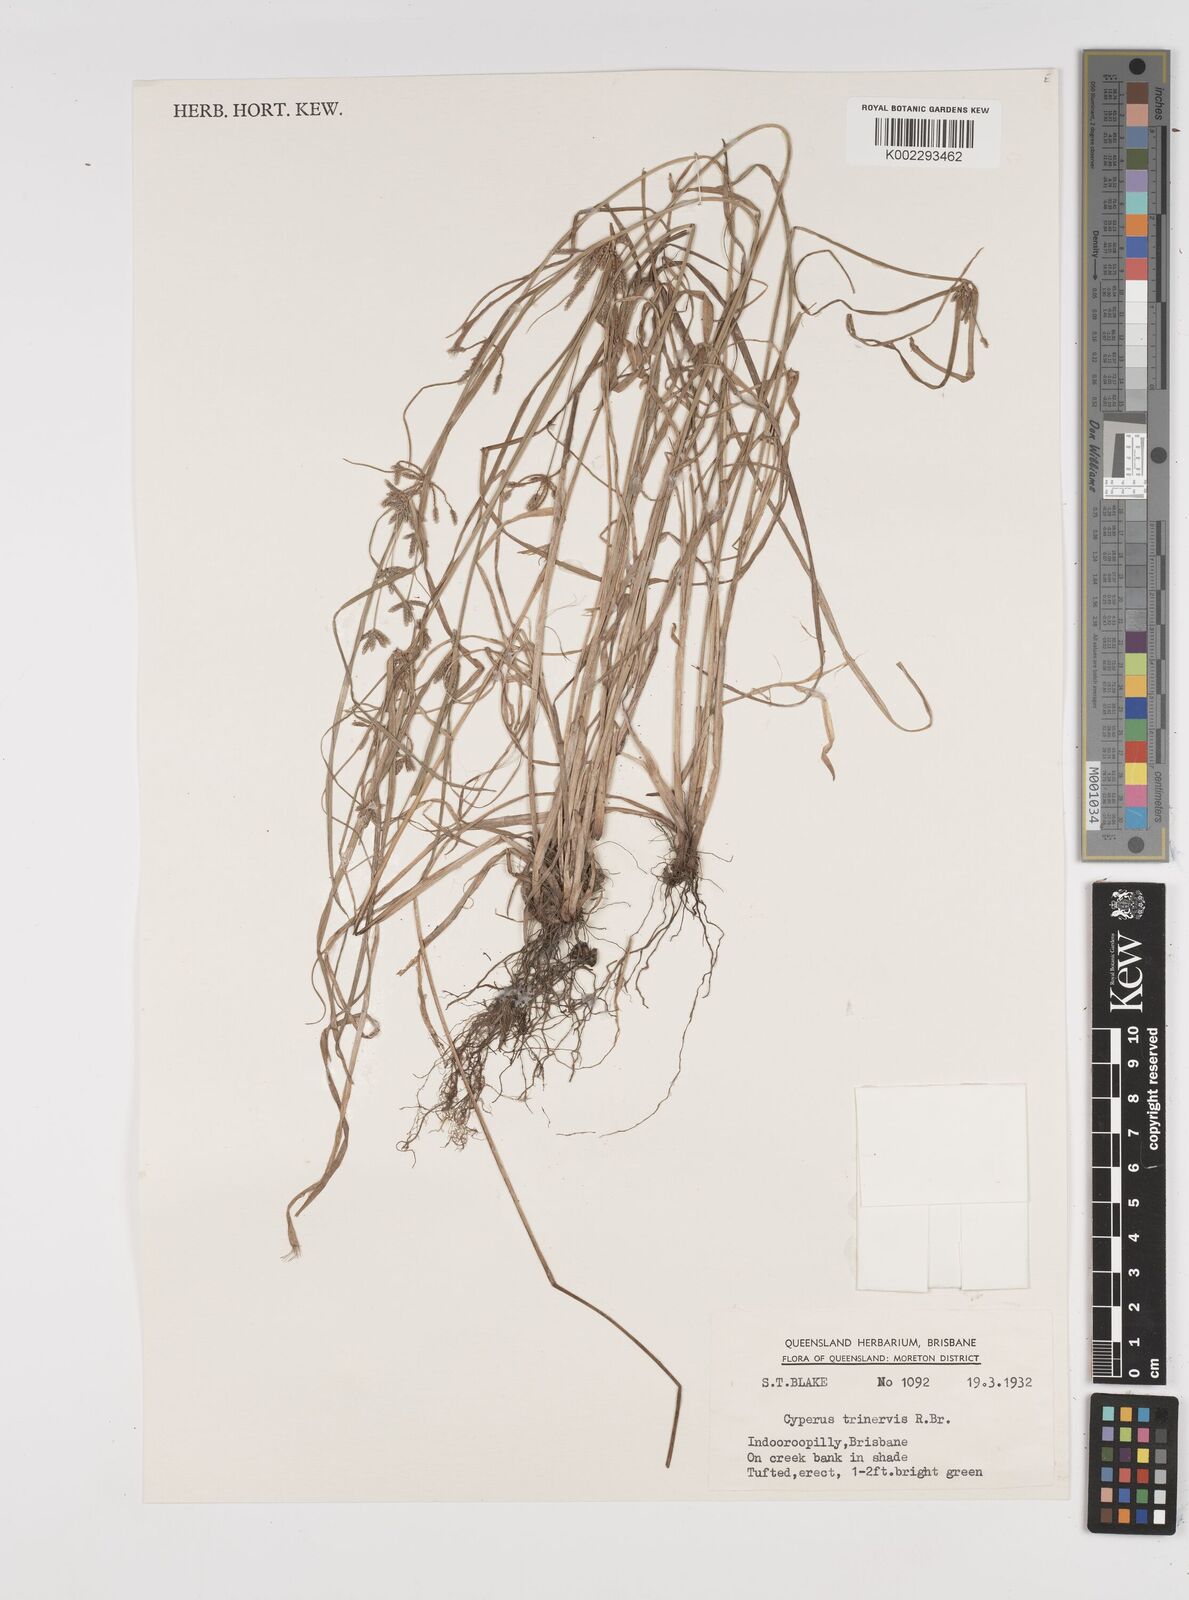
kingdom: Plantae
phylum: Tracheophyta
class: Liliopsida
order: Poales
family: Cyperaceae
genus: Cyperus
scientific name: Cyperus trinervis
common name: Australian flatsedge
